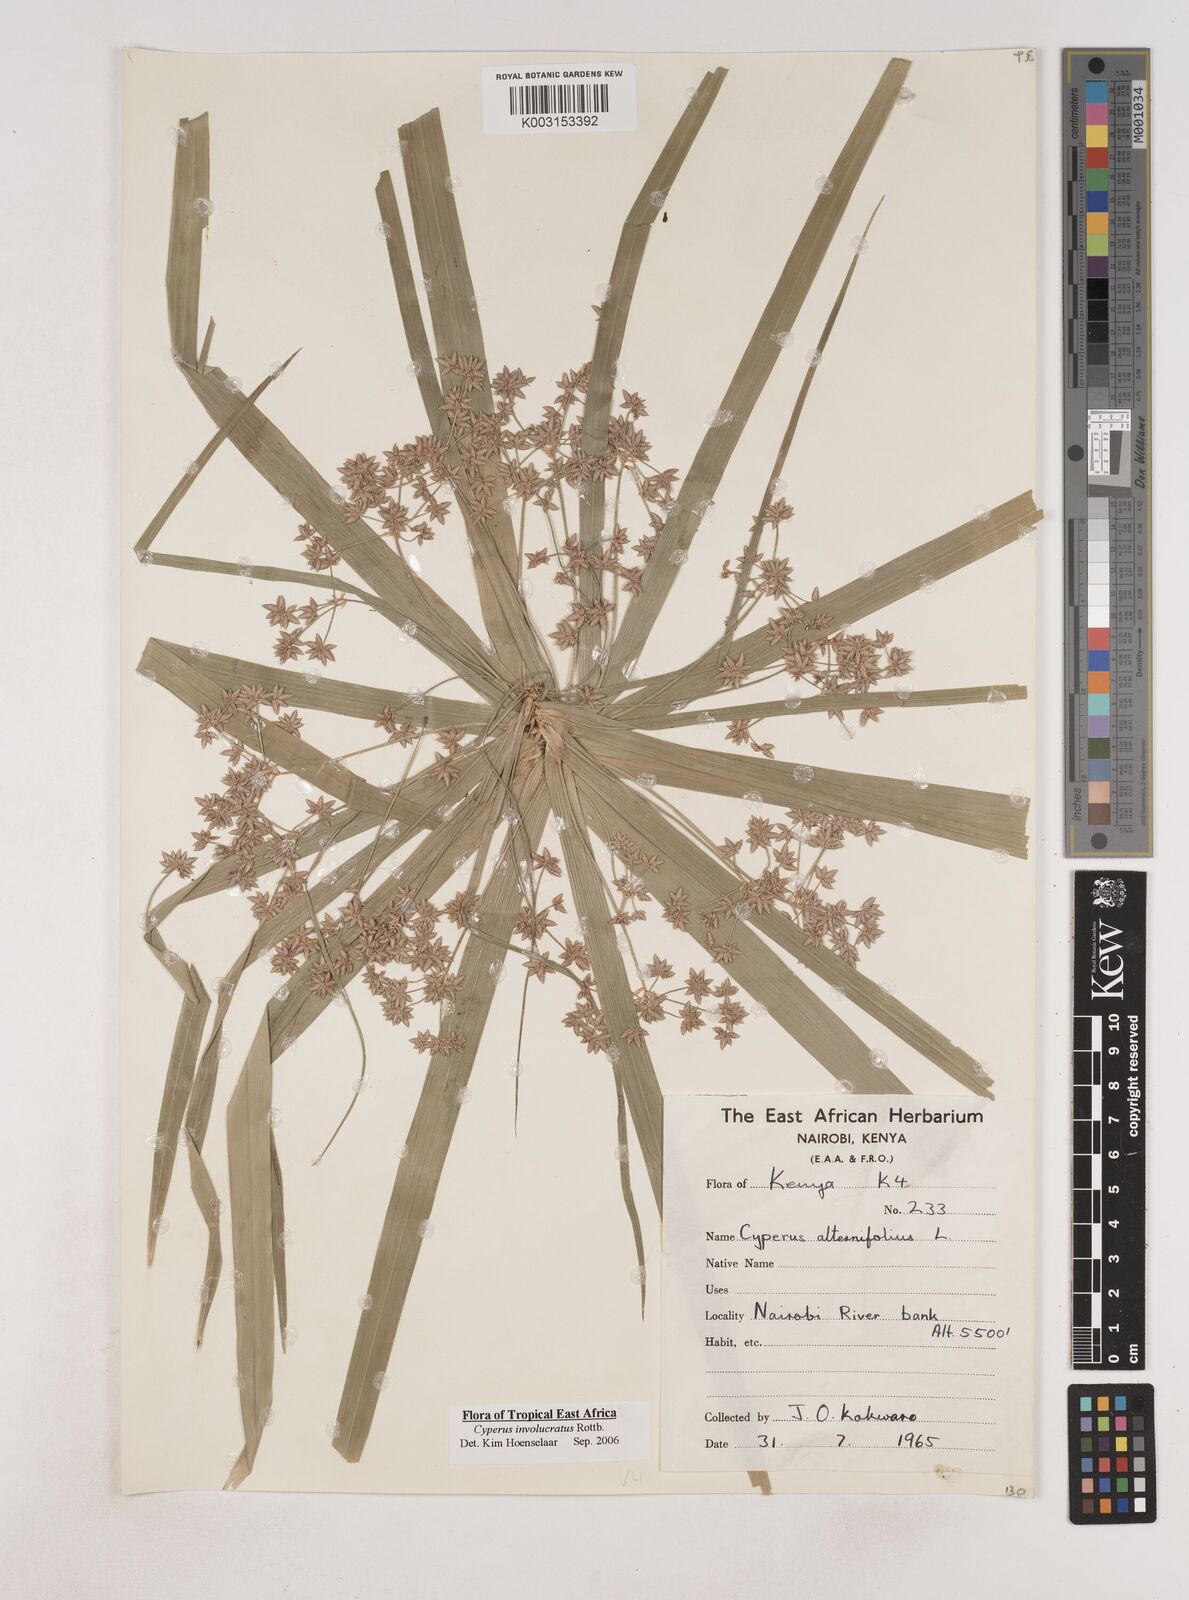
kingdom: Plantae
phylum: Tracheophyta
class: Liliopsida
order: Poales
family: Cyperaceae
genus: Cyperus
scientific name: Cyperus alternifolius
